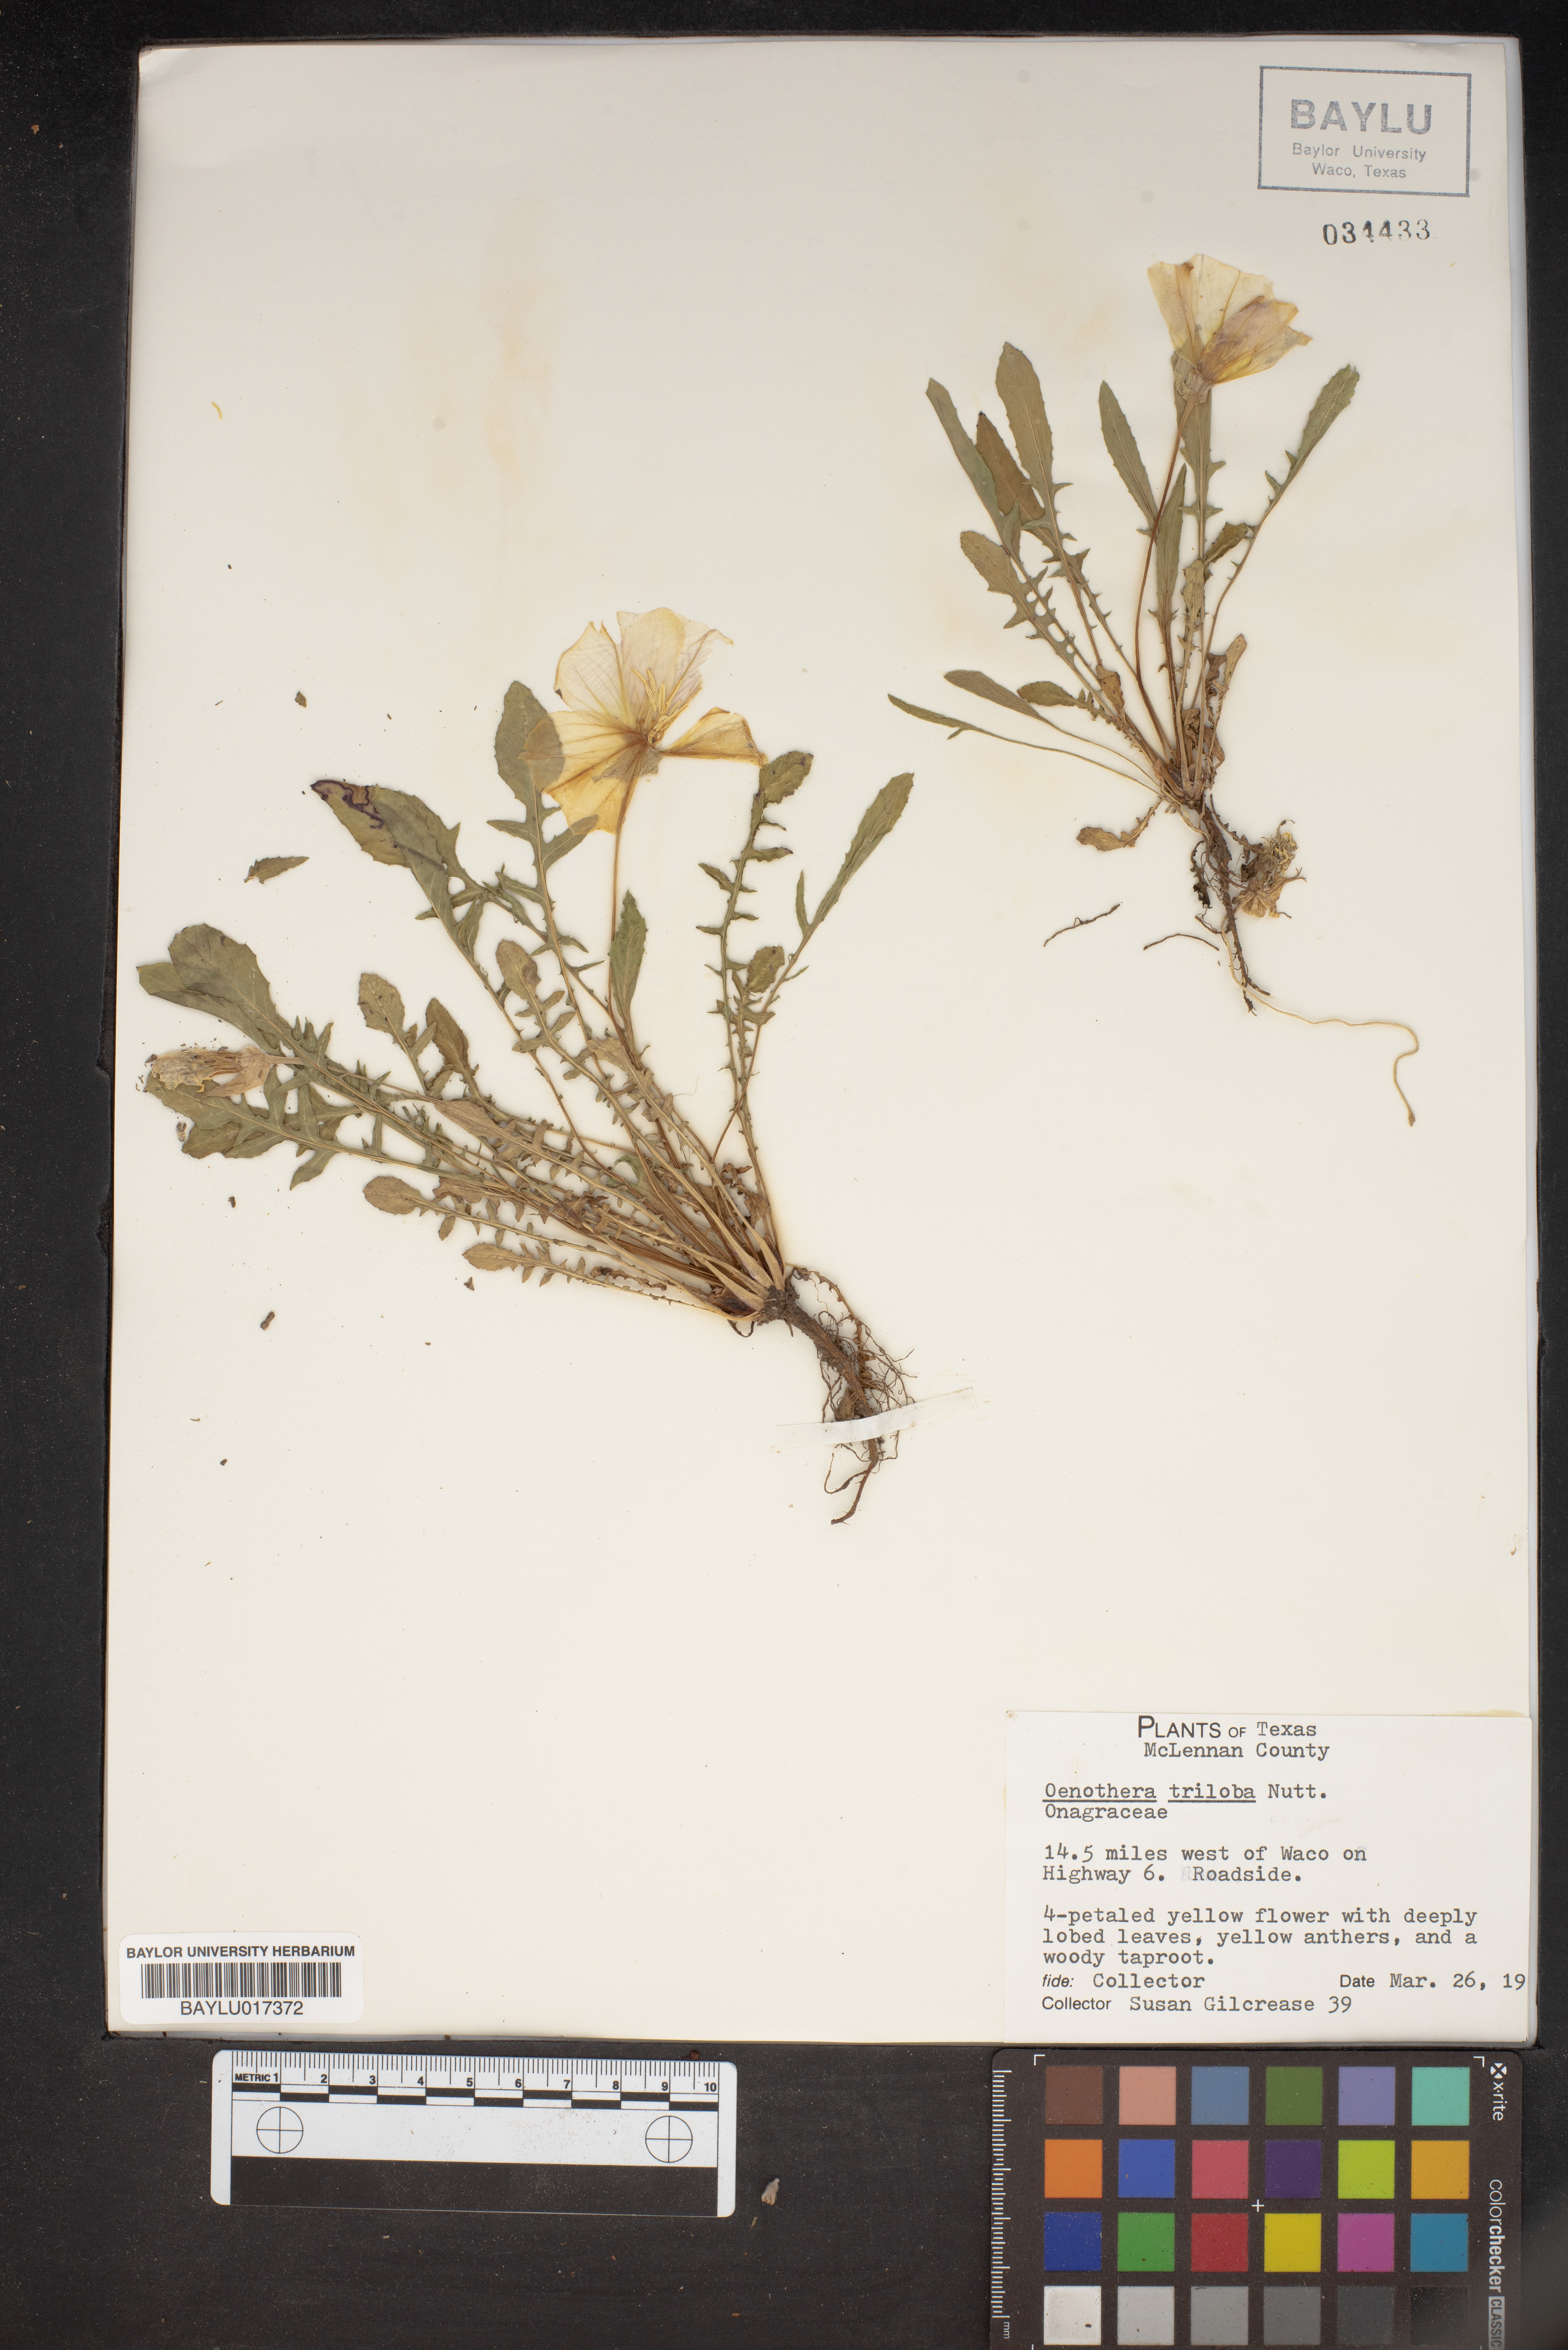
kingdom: Plantae
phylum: Tracheophyta
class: Magnoliopsida
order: Myrtales
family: Onagraceae
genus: Oenothera
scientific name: Oenothera triloba
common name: Sessile evening-primrose
